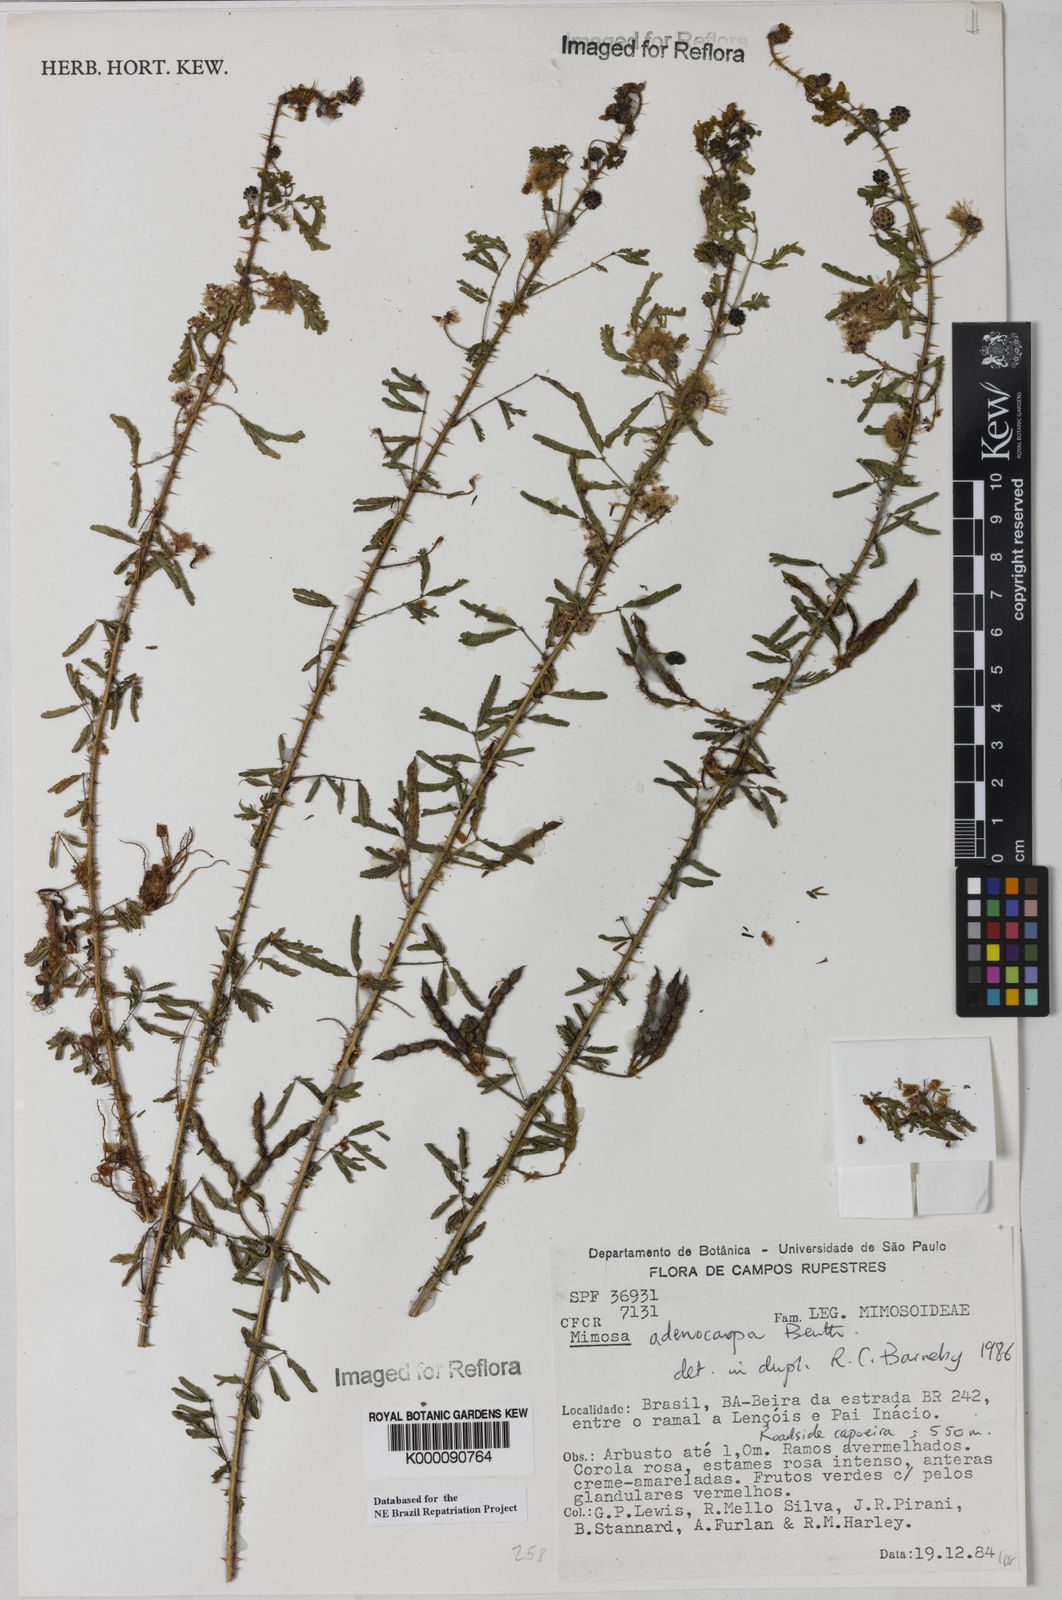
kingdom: Plantae
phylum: Tracheophyta
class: Magnoliopsida
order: Fabales
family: Fabaceae
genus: Mimosa
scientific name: Mimosa adenocarpa
